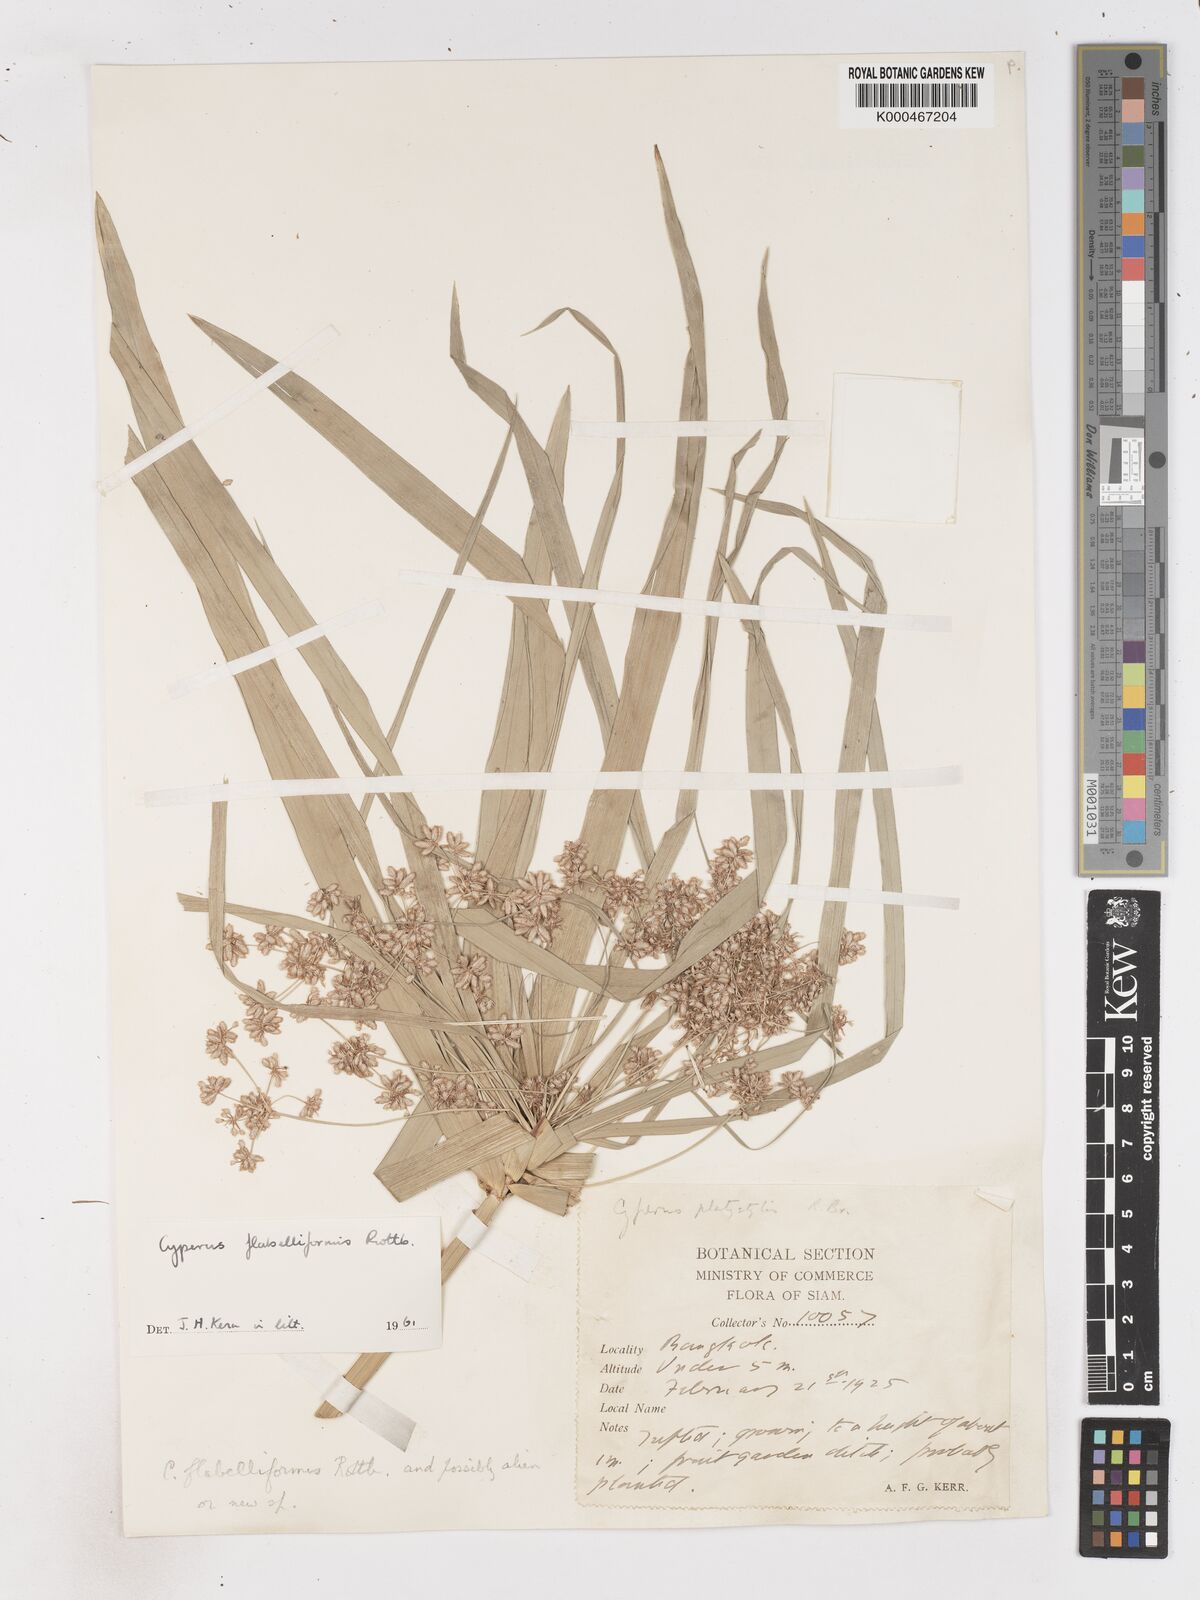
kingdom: Plantae
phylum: Tracheophyta
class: Liliopsida
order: Poales
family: Cyperaceae
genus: Cyperus
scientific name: Cyperus platystylis
